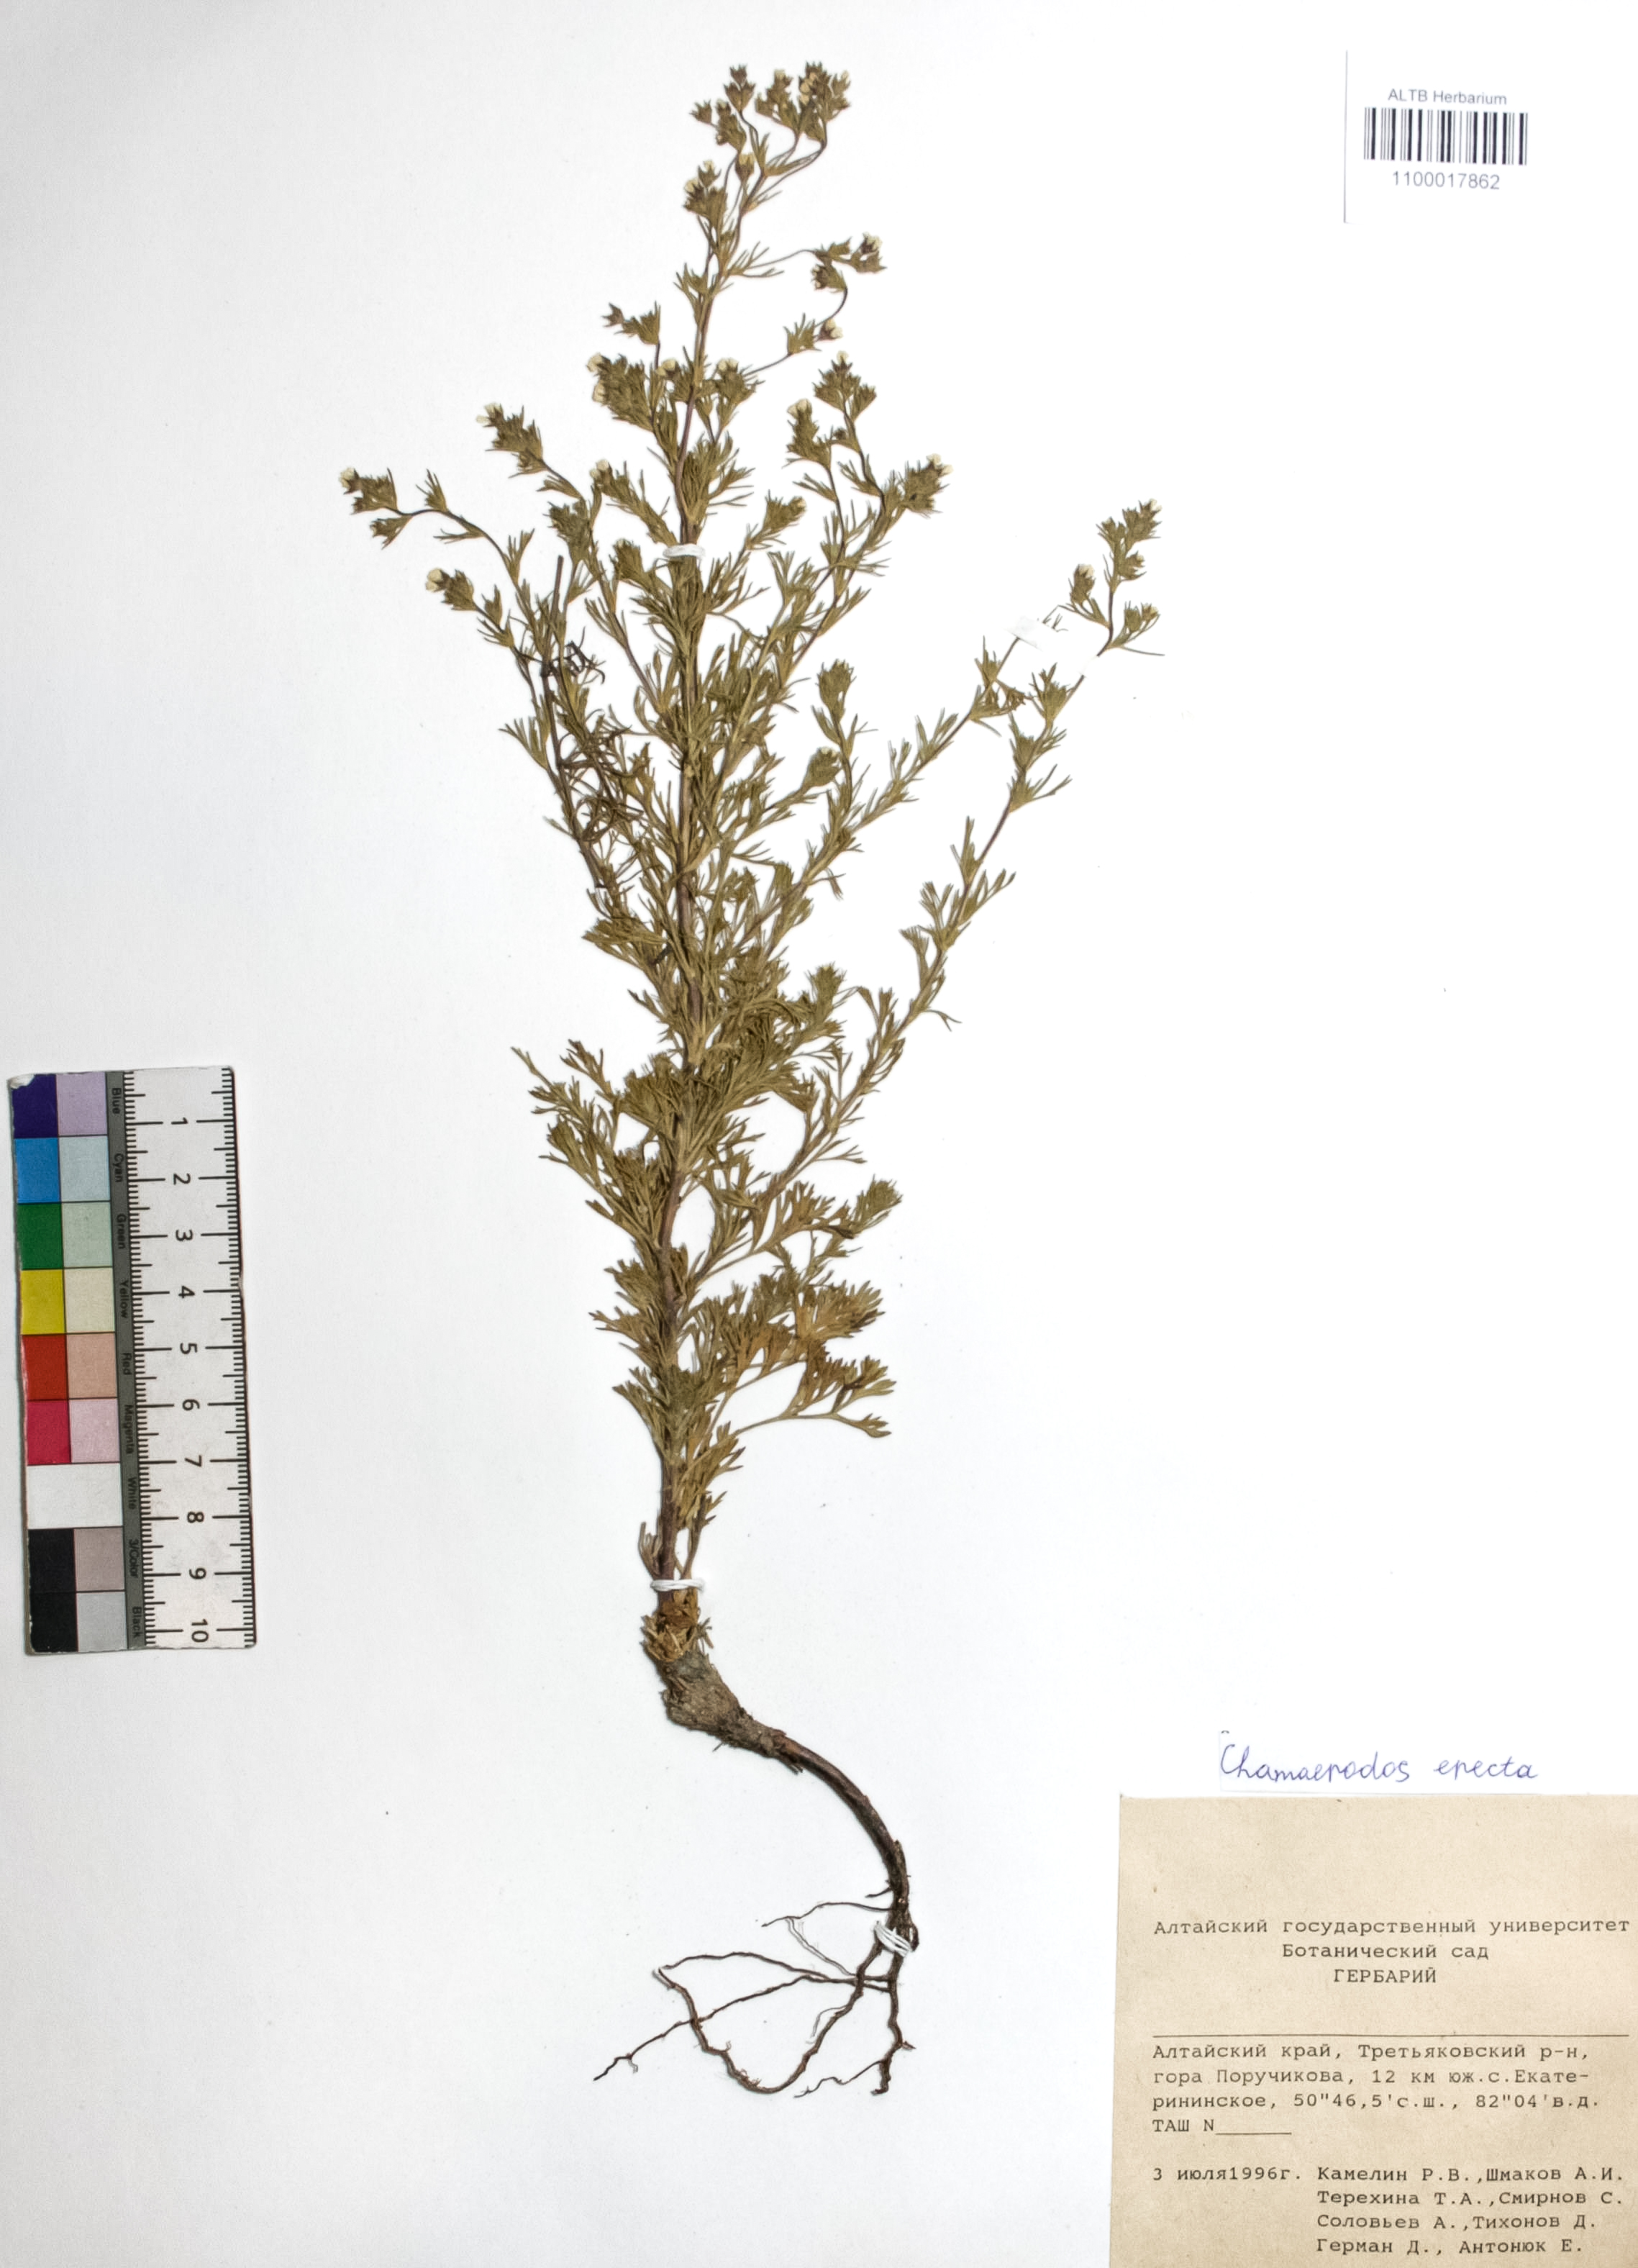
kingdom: Plantae
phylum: Tracheophyta
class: Magnoliopsida
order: Rosales
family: Rosaceae
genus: Chamaerhodos
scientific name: Chamaerhodos erecta
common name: American chamaerhodos
